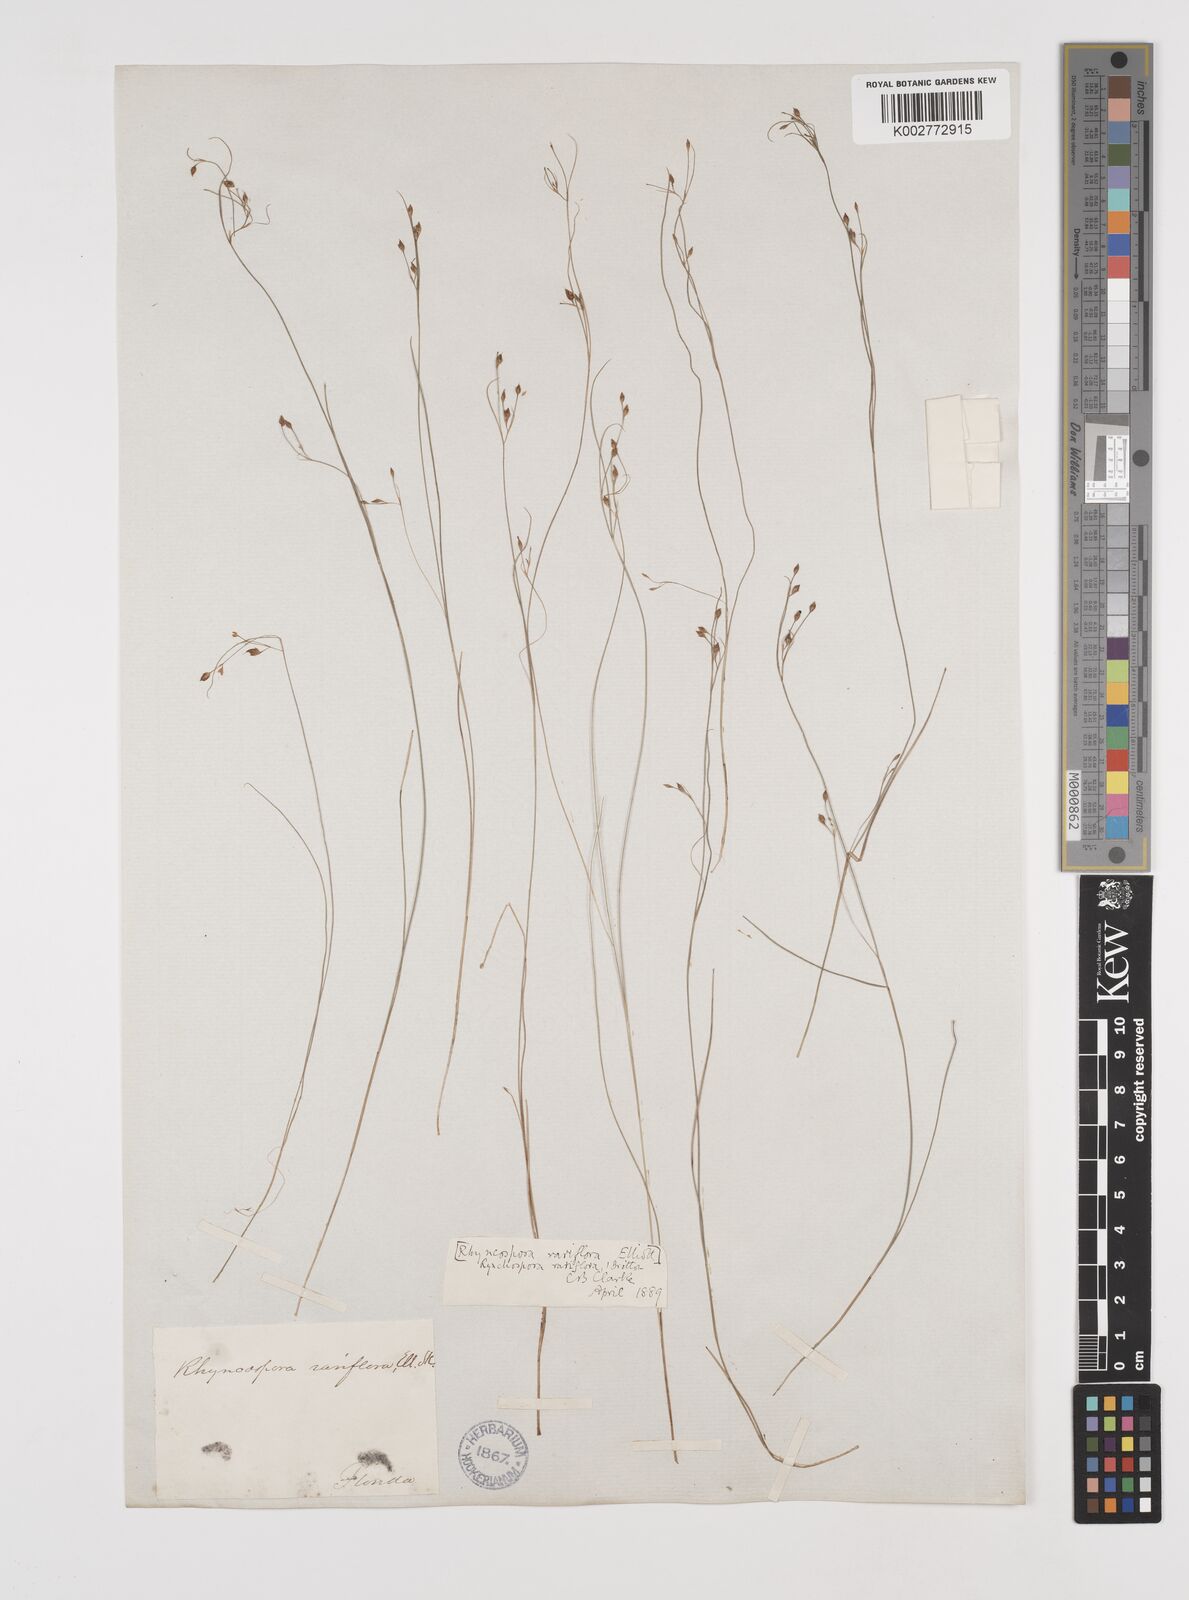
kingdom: Plantae
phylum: Tracheophyta
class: Liliopsida
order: Poales
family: Cyperaceae
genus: Rhynchospora
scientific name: Rhynchospora rariflora
